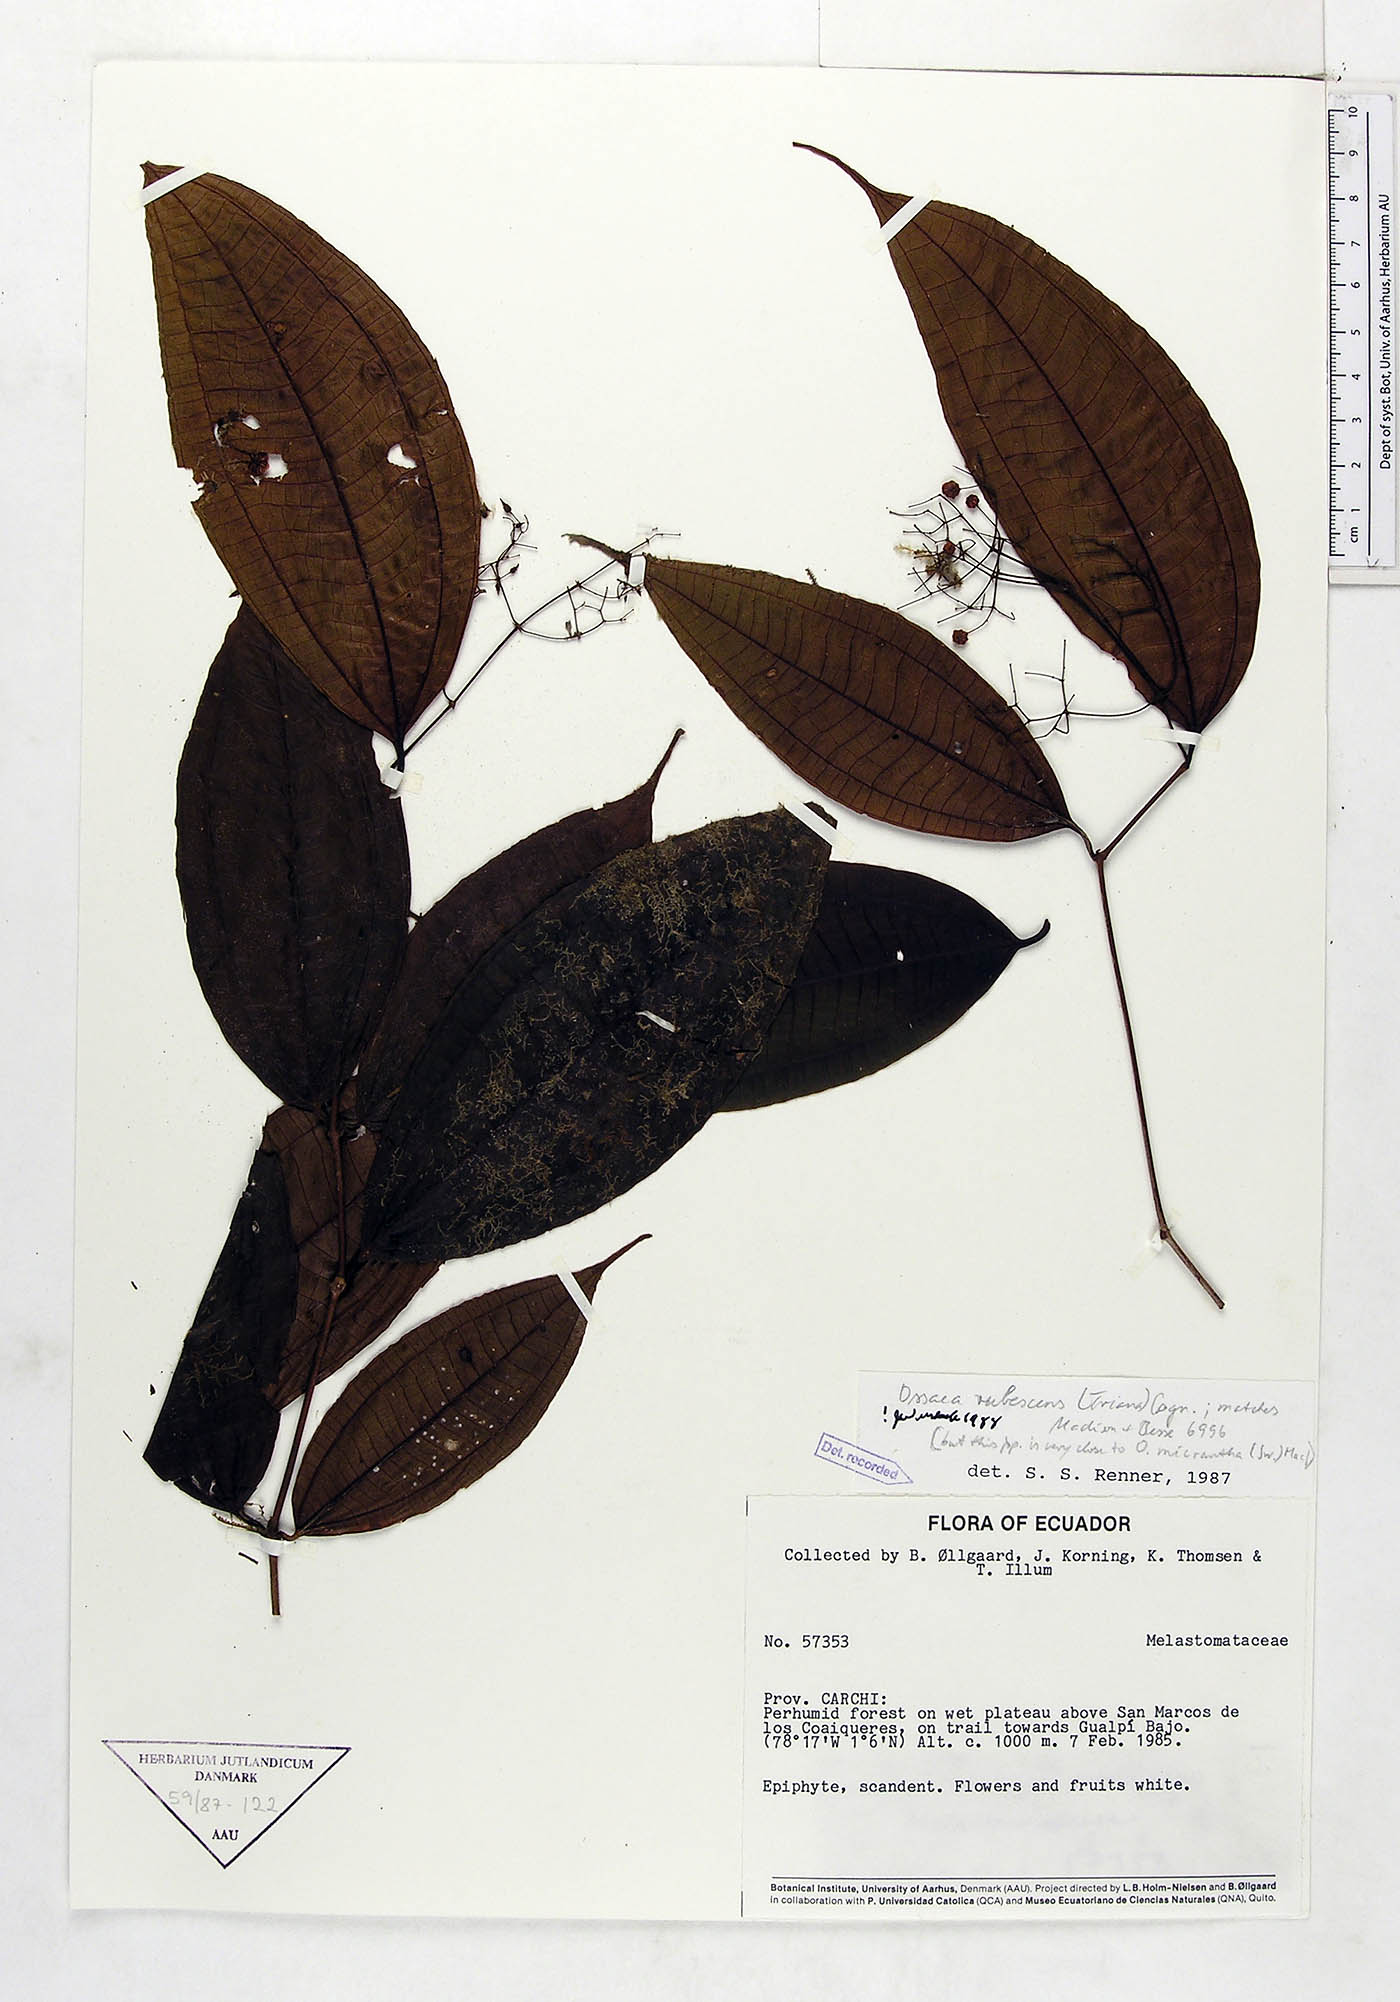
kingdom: Plantae
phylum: Tracheophyta
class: Magnoliopsida
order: Myrtales
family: Melastomataceae
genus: Miconia
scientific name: Miconia rubescens
